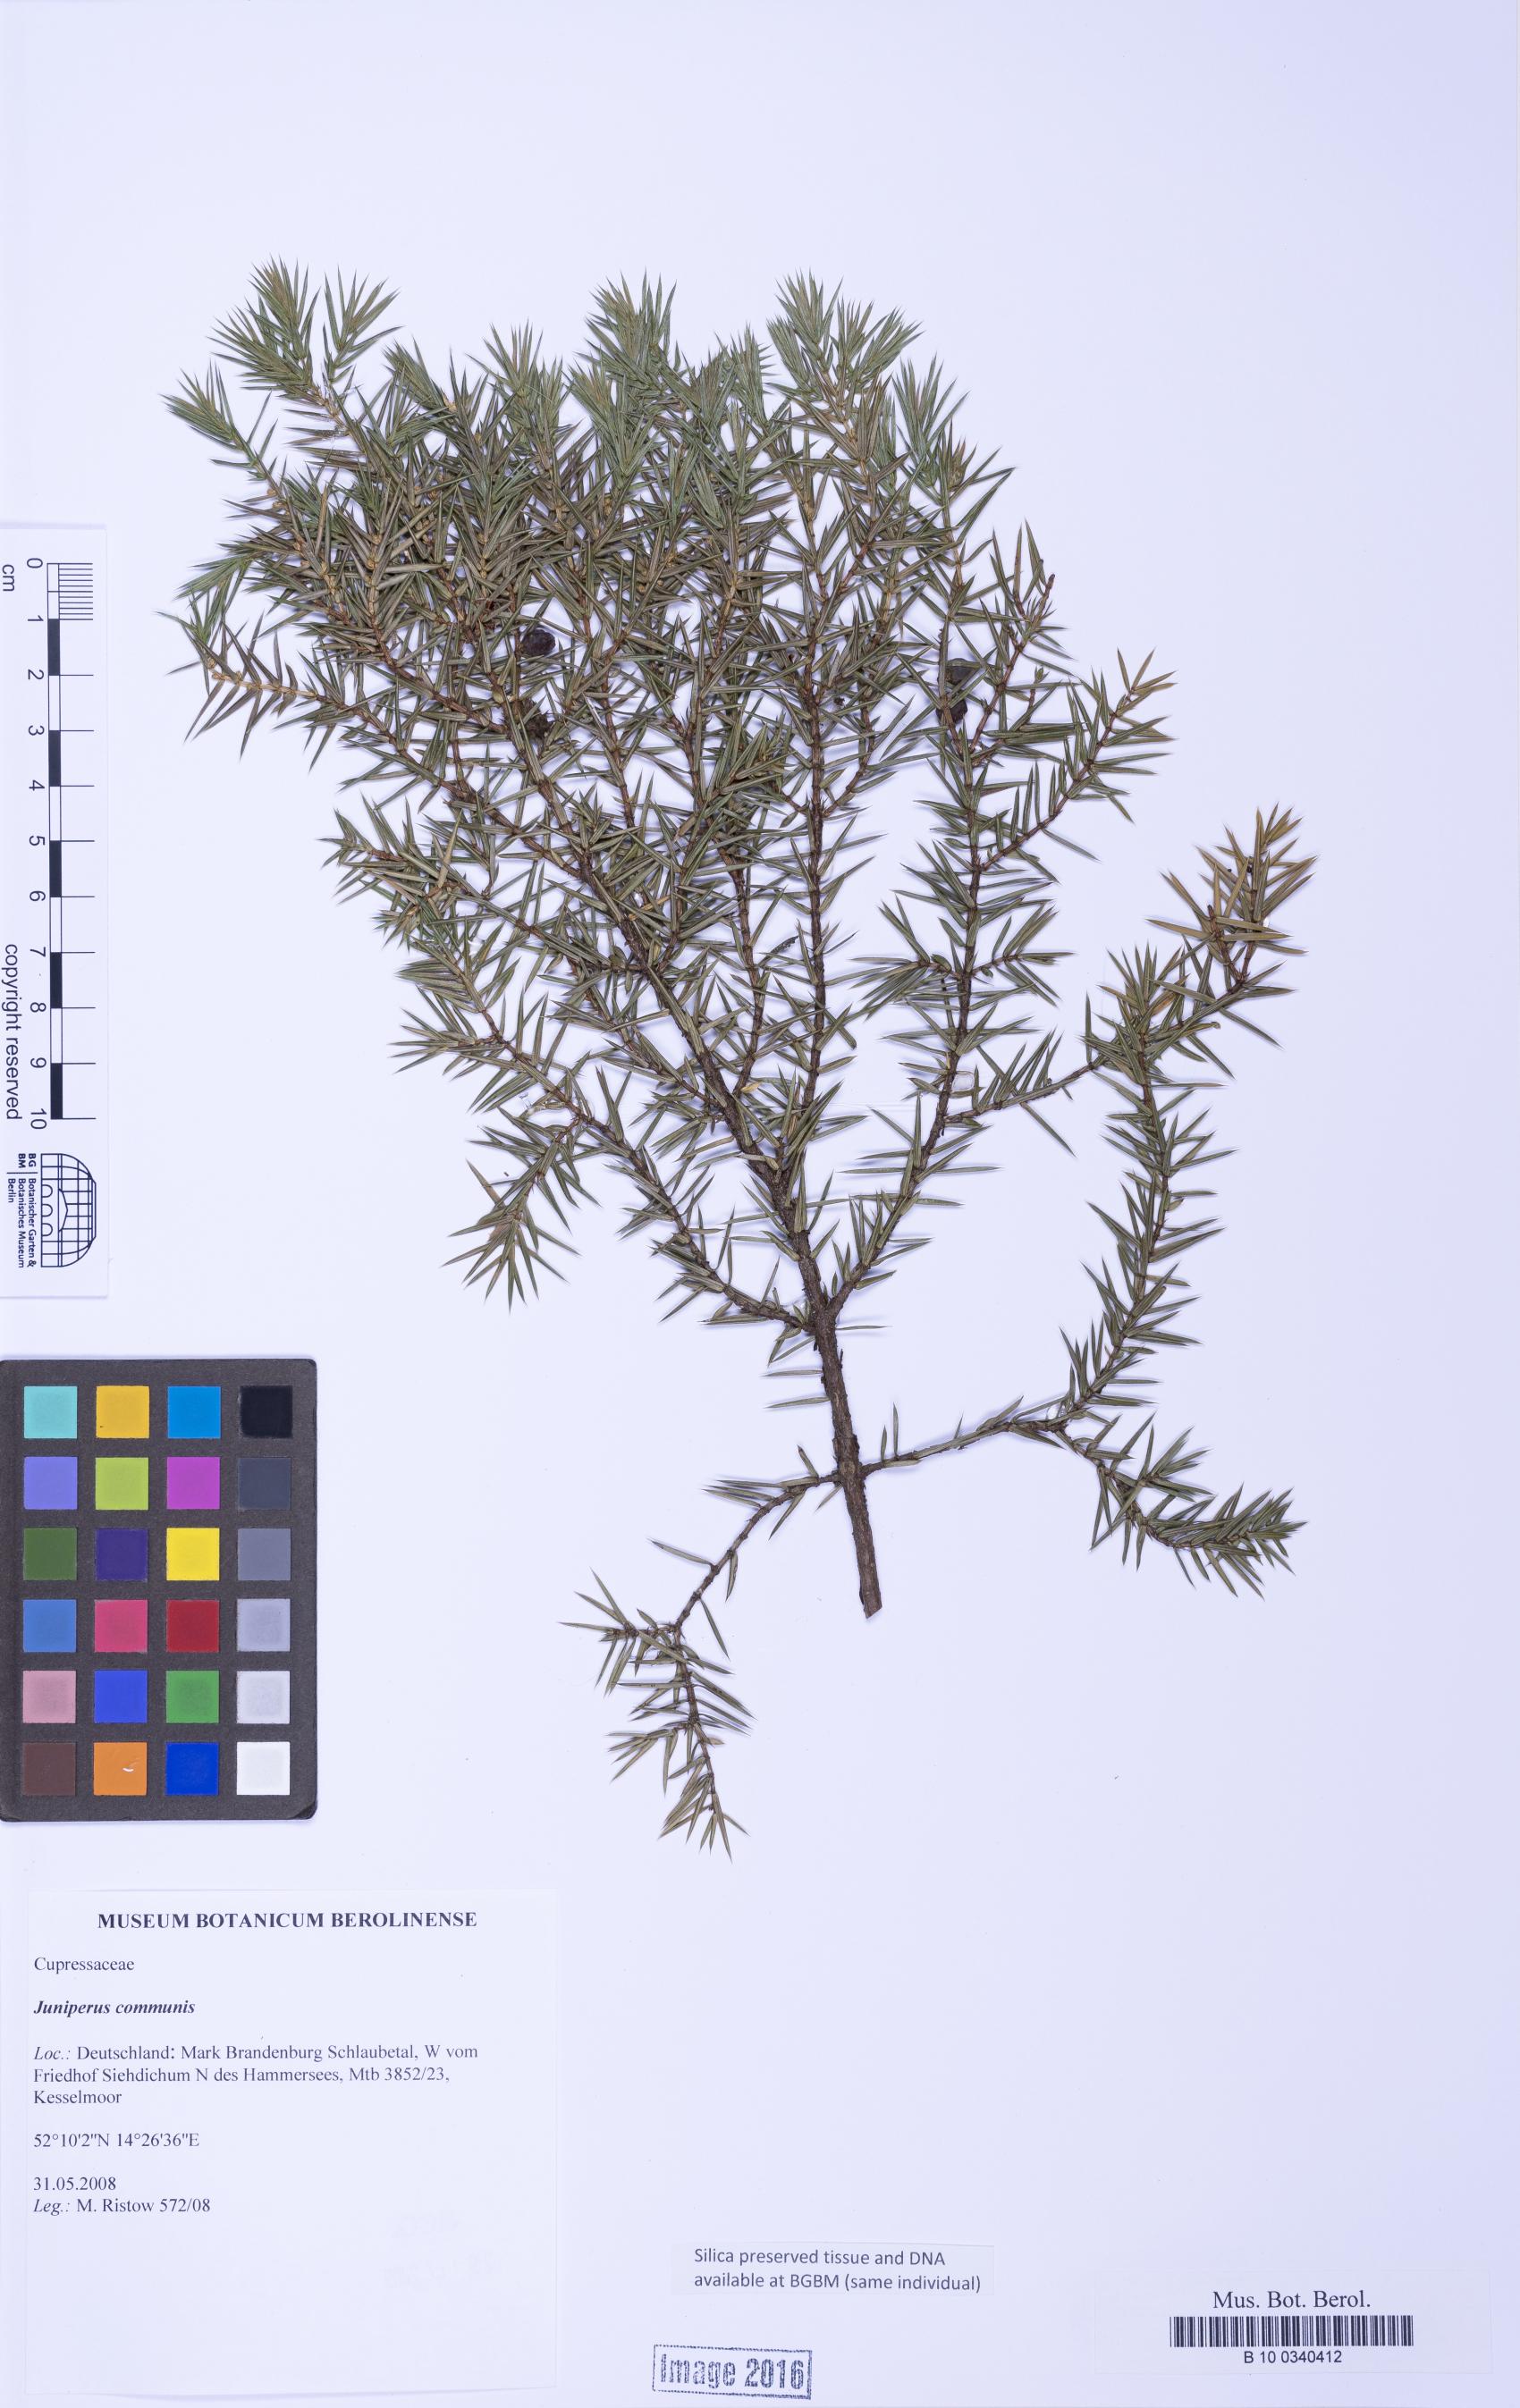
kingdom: Plantae
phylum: Tracheophyta
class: Pinopsida
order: Pinales
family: Cupressaceae
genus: Juniperus
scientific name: Juniperus communis
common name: Common juniper
